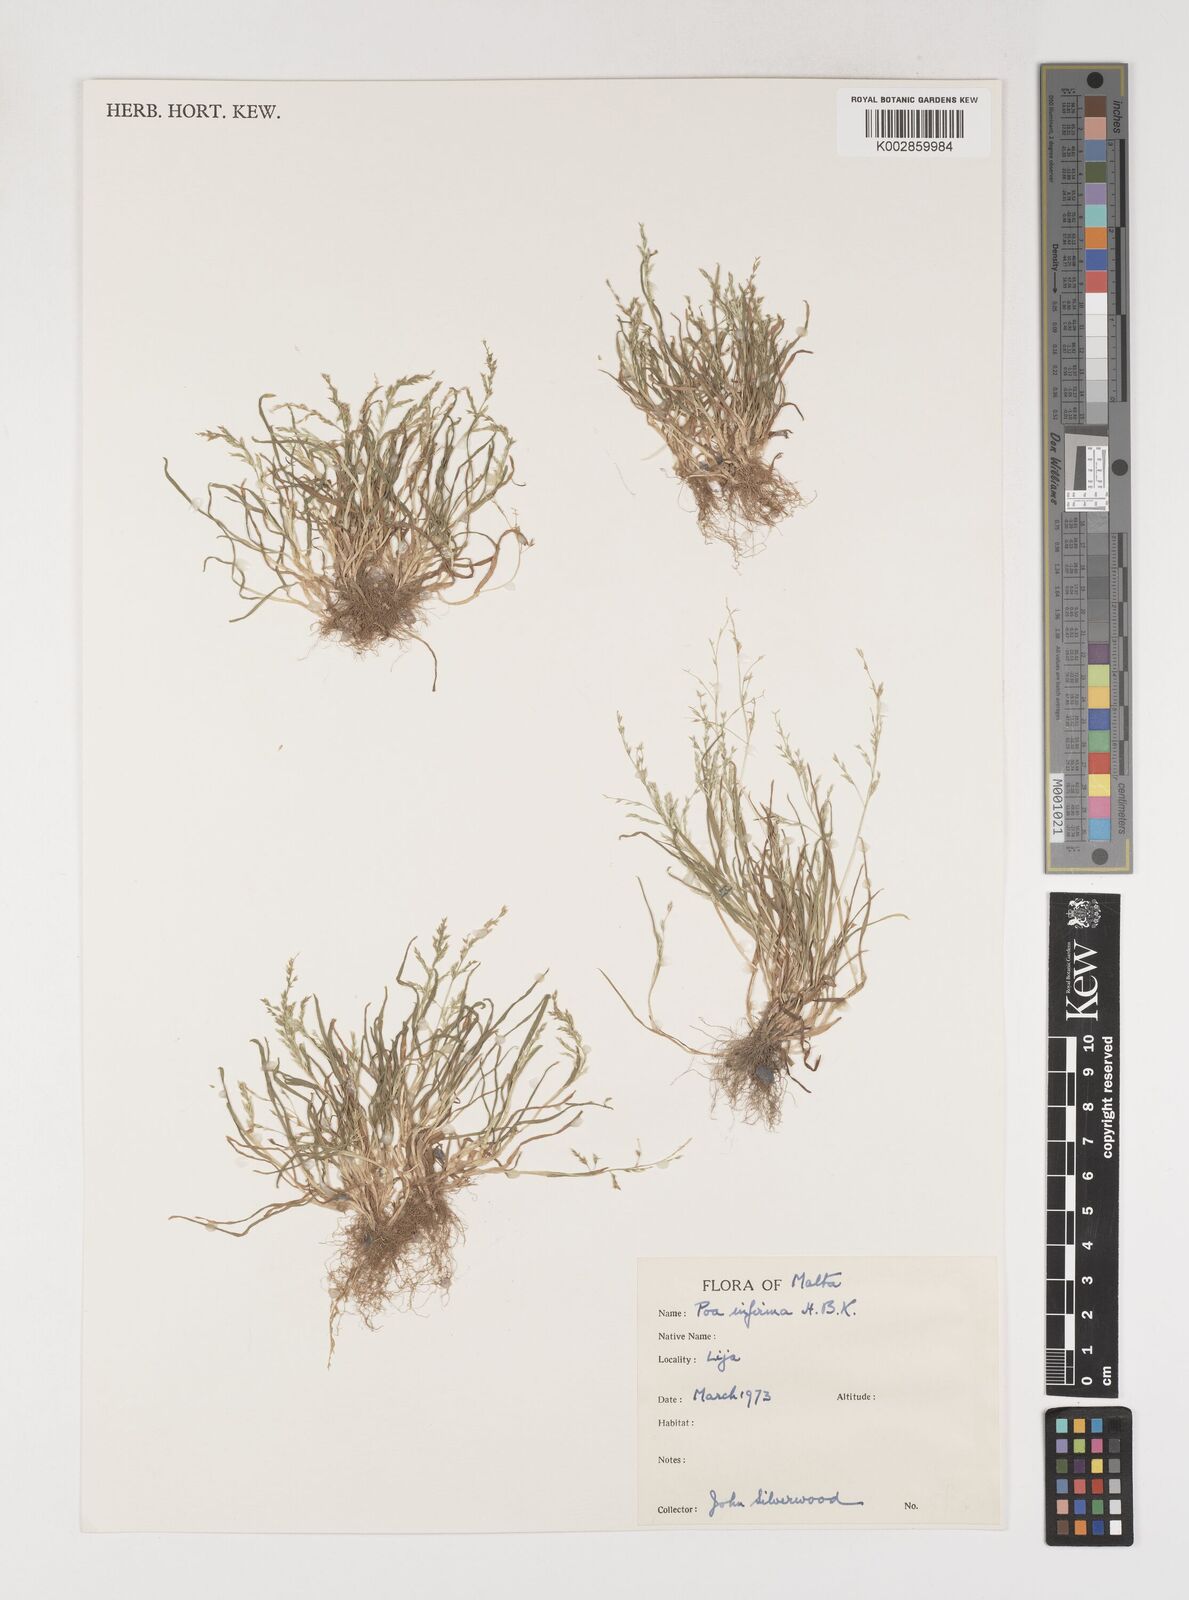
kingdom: Plantae
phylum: Tracheophyta
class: Liliopsida
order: Poales
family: Poaceae
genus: Poa
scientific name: Poa infirma
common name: Weak bluegrass
